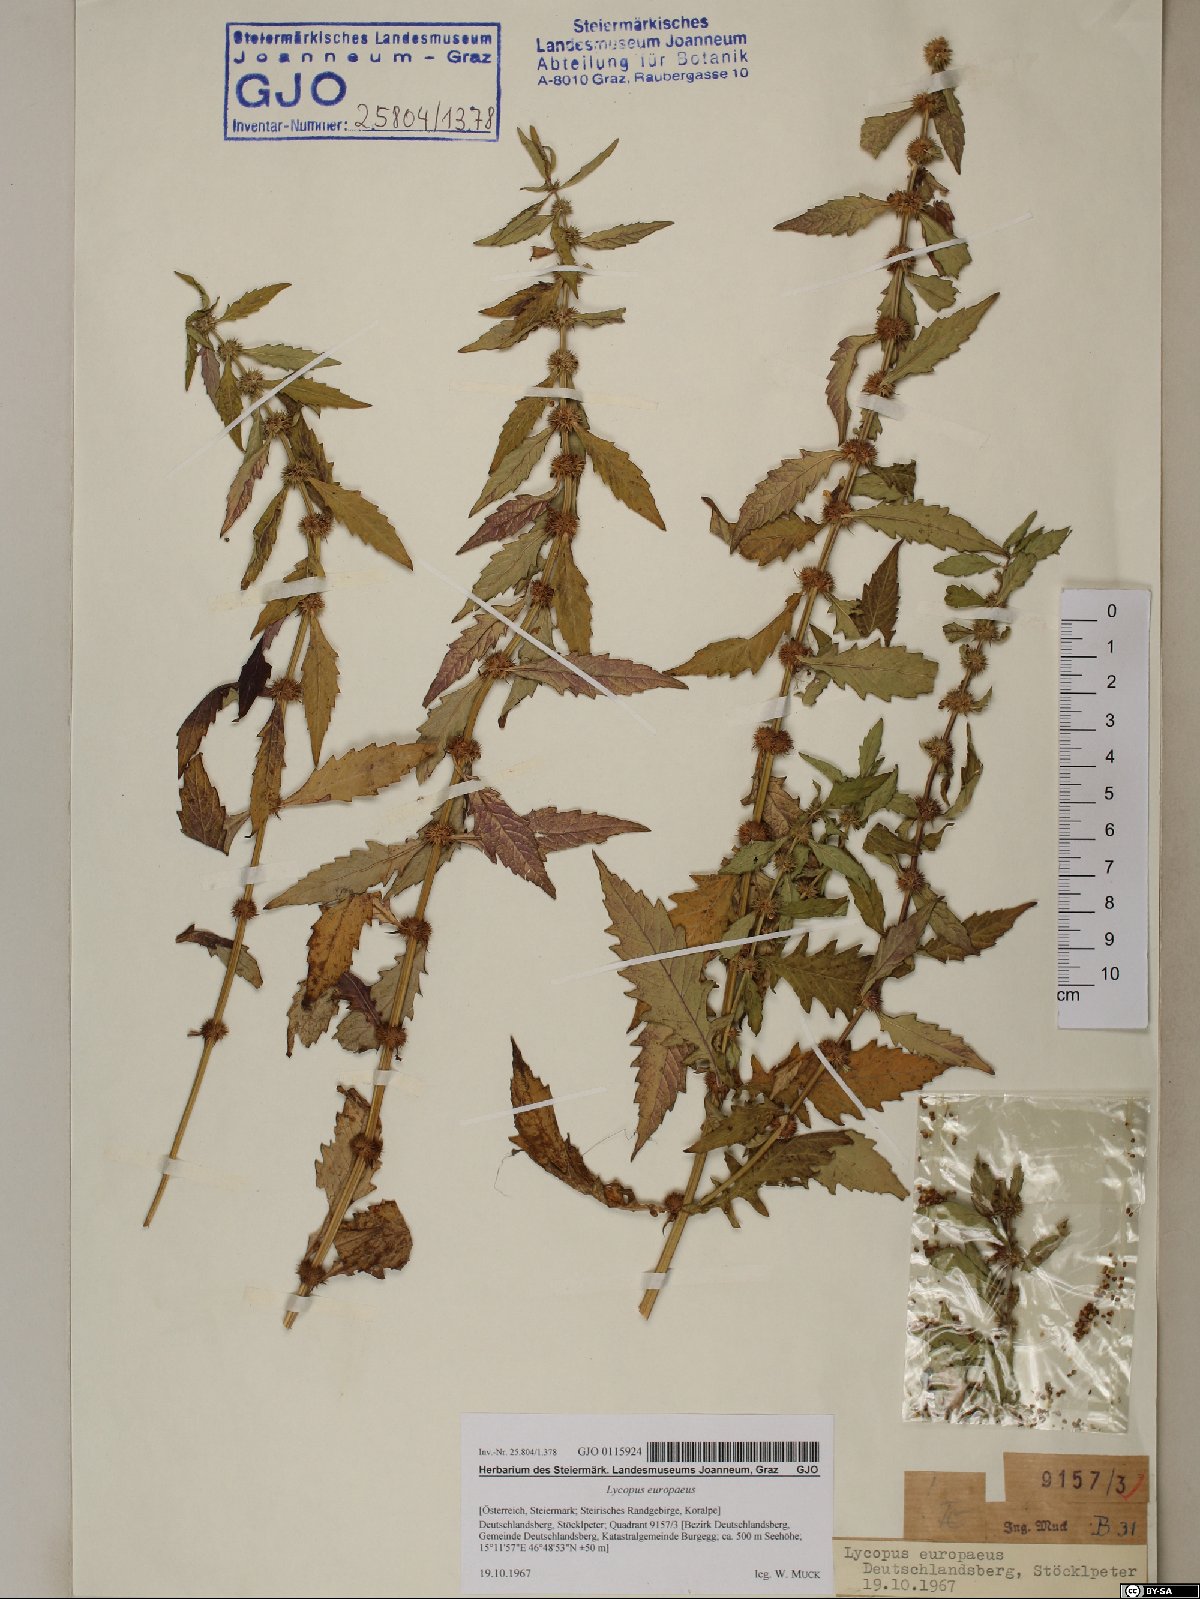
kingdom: Plantae
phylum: Tracheophyta
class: Magnoliopsida
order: Lamiales
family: Lamiaceae
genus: Lycopus
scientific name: Lycopus europaeus
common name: European bugleweed
